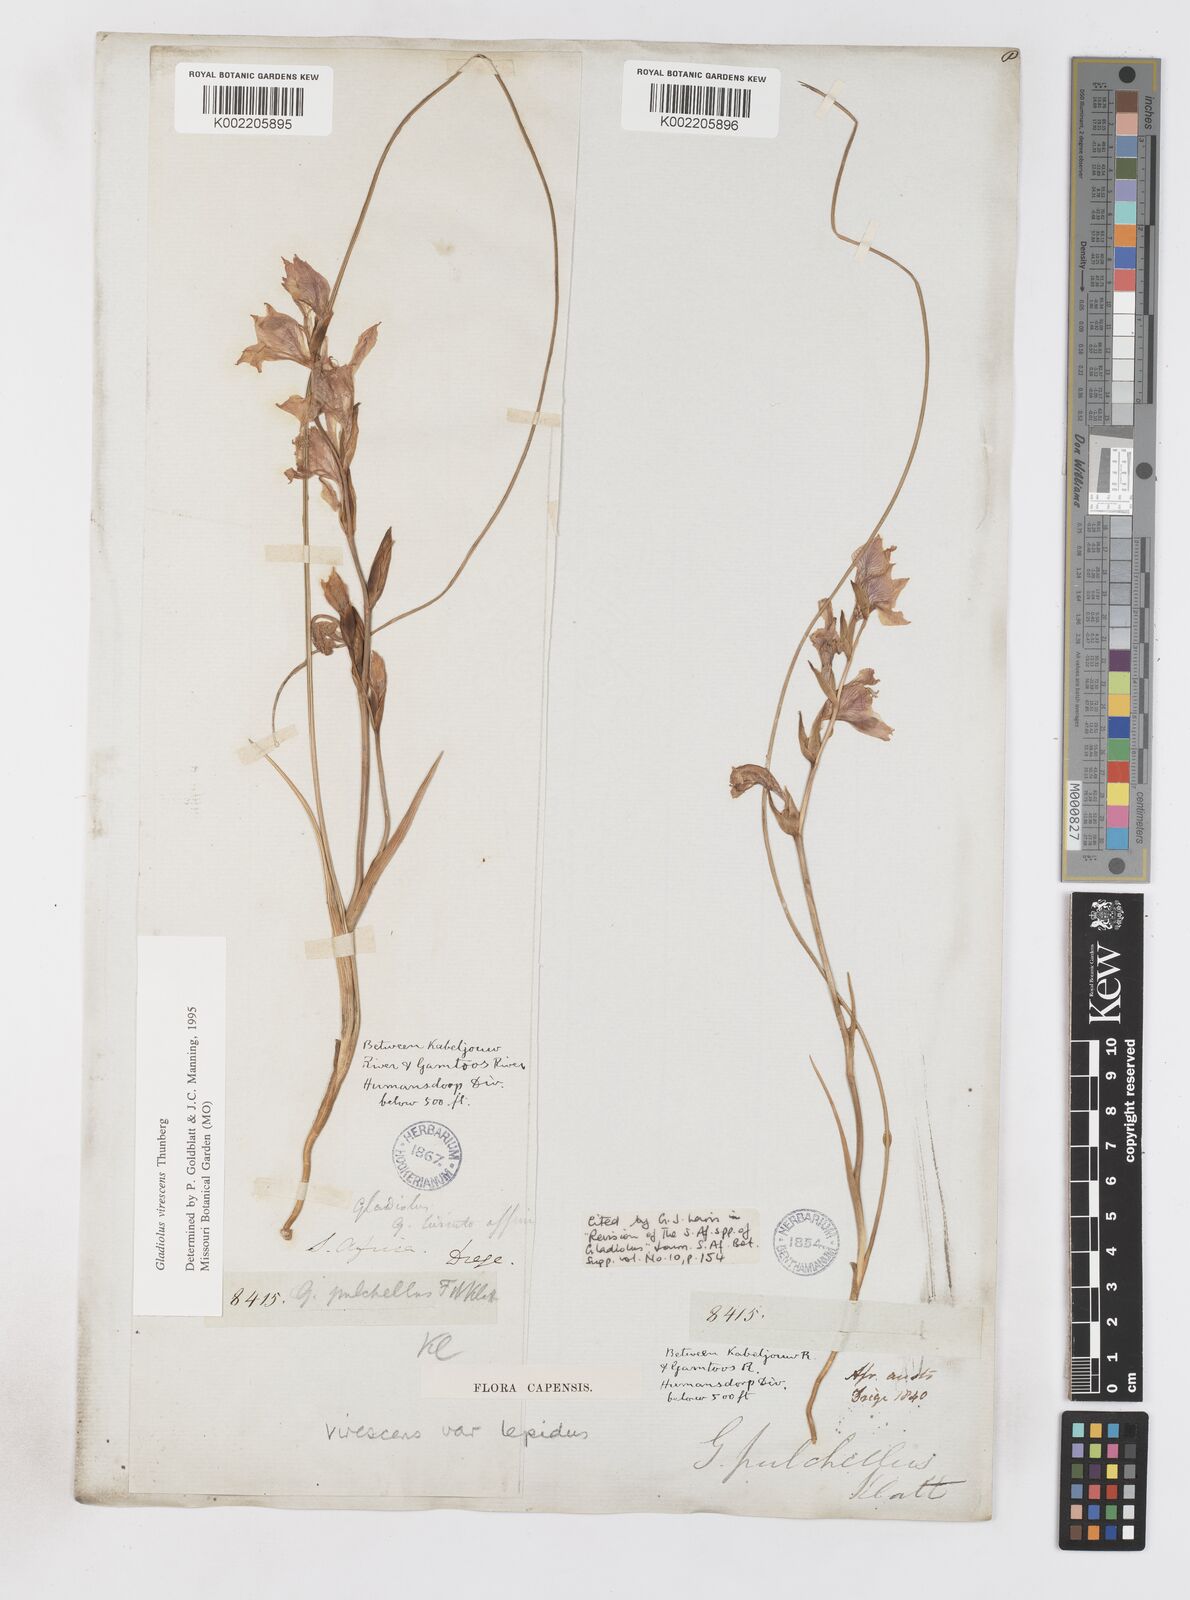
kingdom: Plantae
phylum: Tracheophyta
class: Liliopsida
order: Asparagales
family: Iridaceae
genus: Gladiolus
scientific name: Gladiolus virescens
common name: Yellow kalkoentjie
